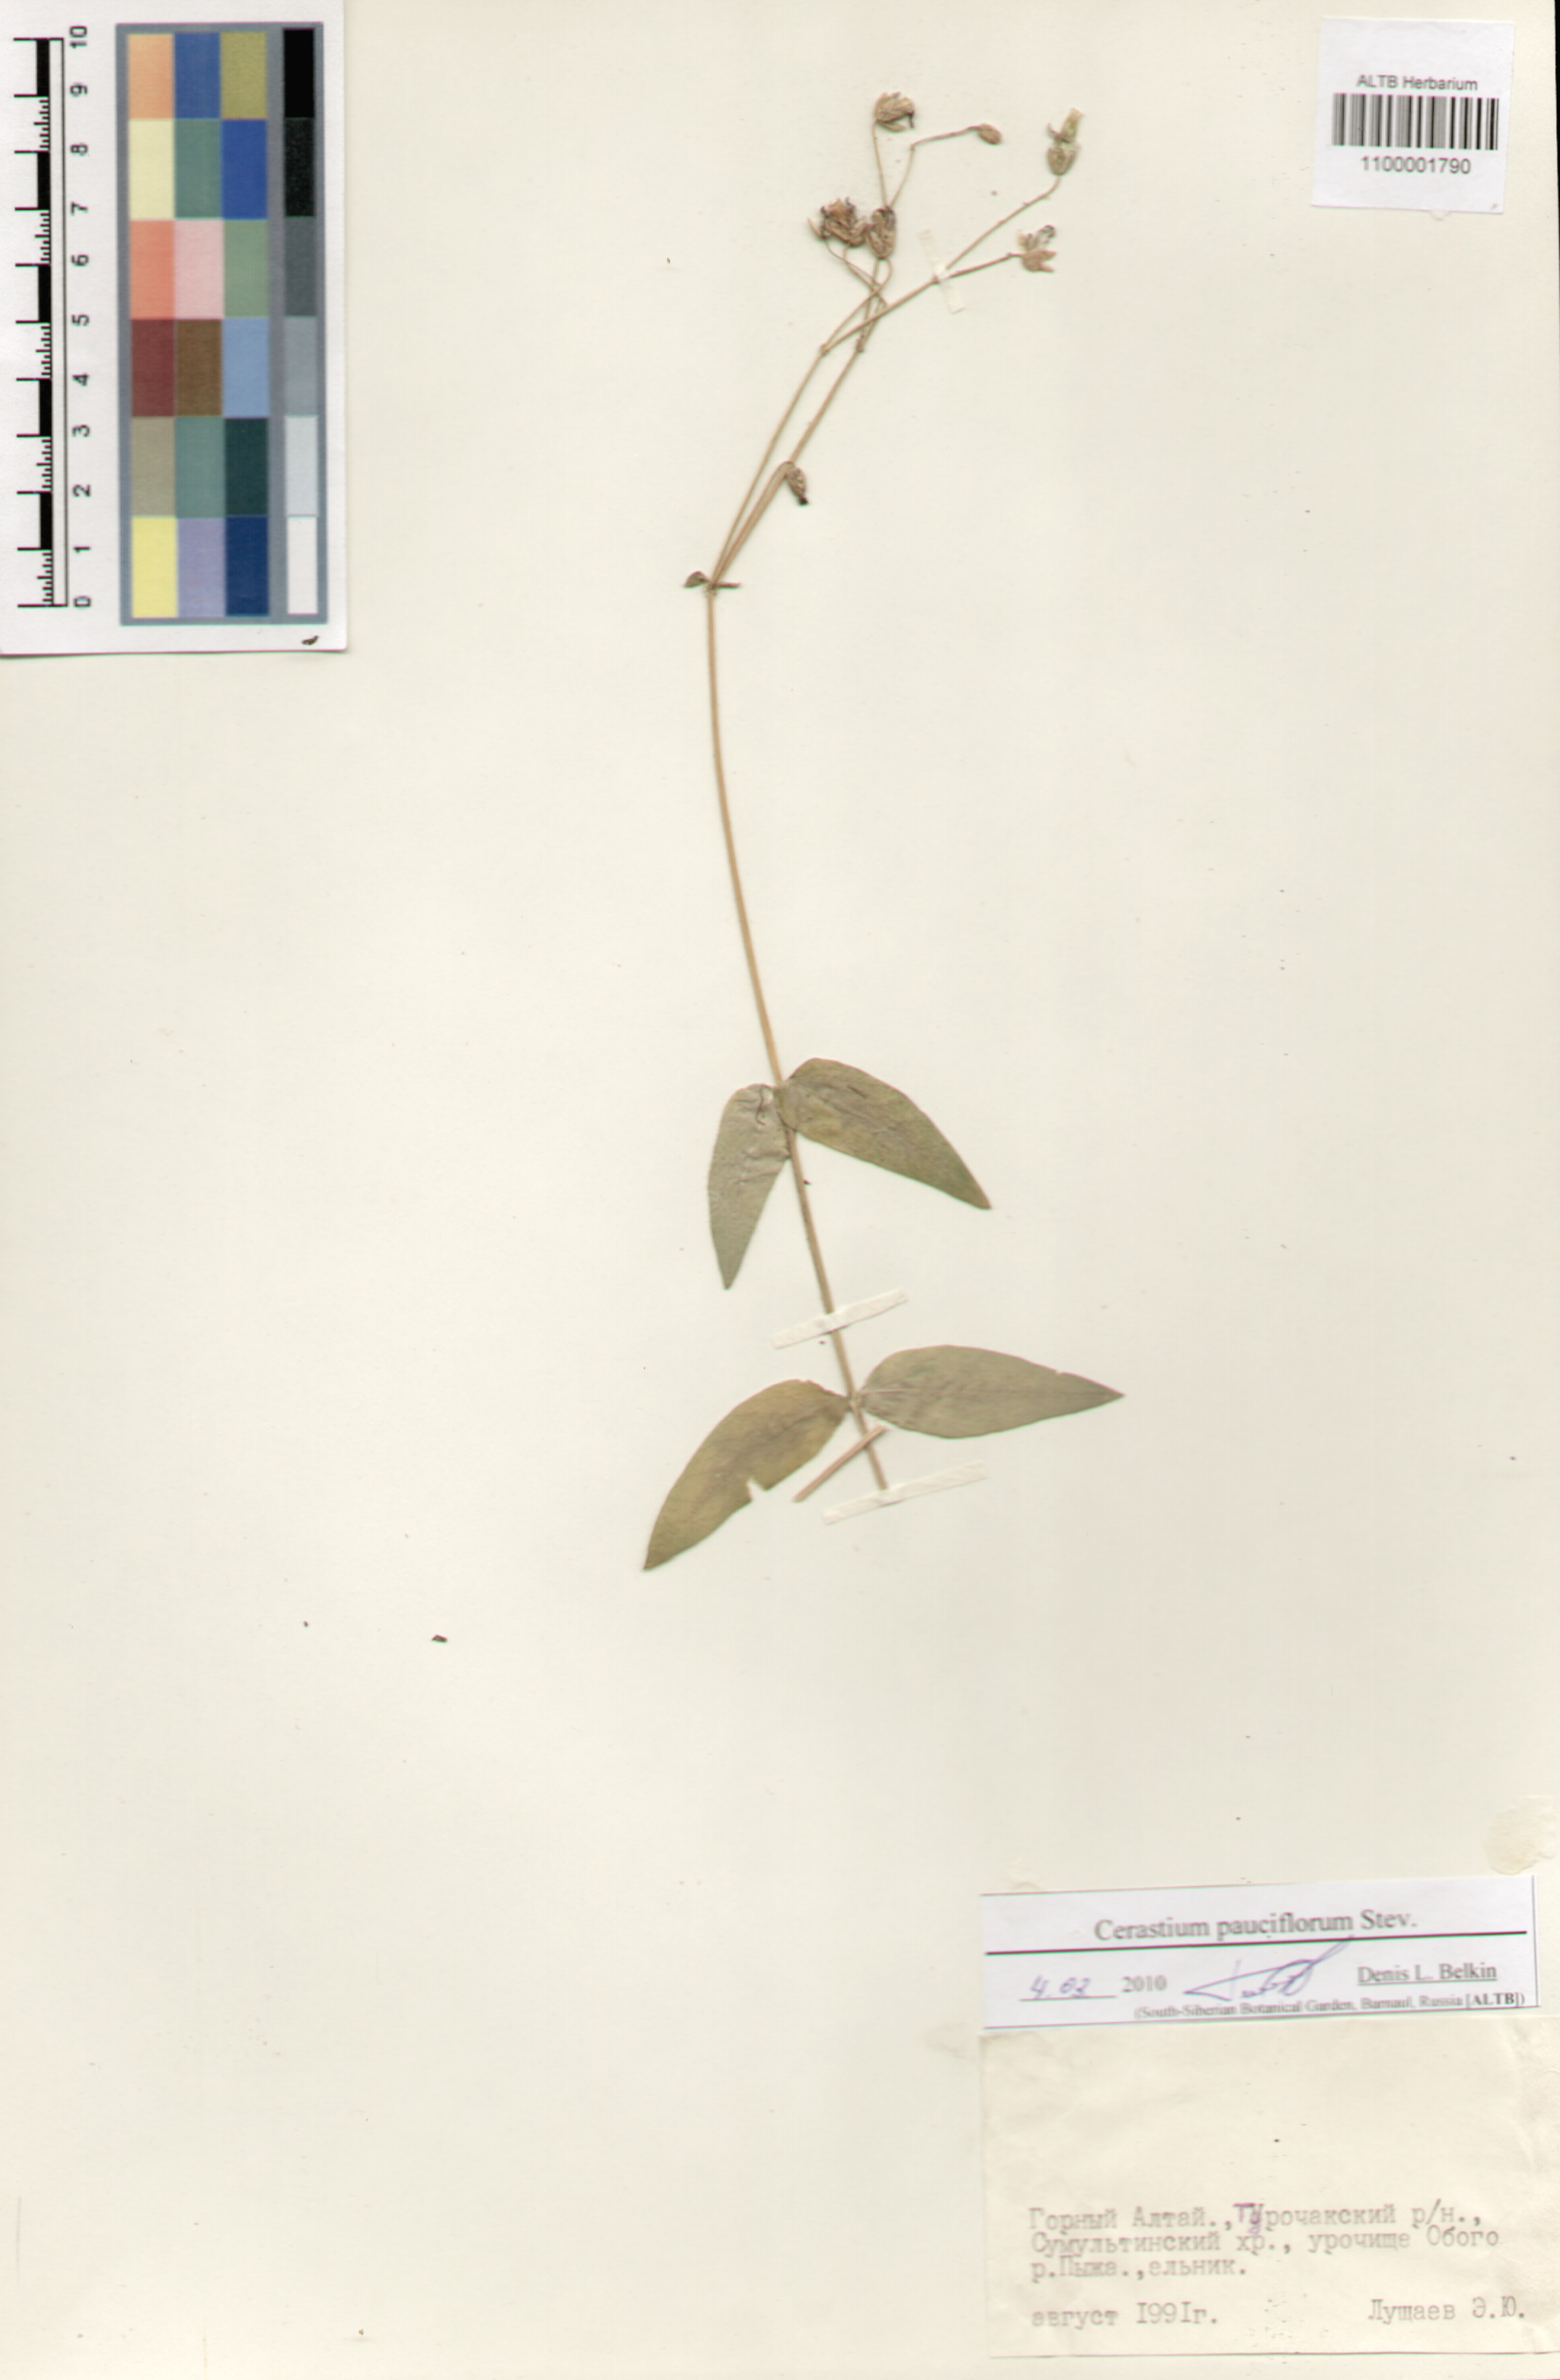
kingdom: Plantae
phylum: Tracheophyta
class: Magnoliopsida
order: Caryophyllales
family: Caryophyllaceae
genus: Cerastium
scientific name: Cerastium pauciflorum
